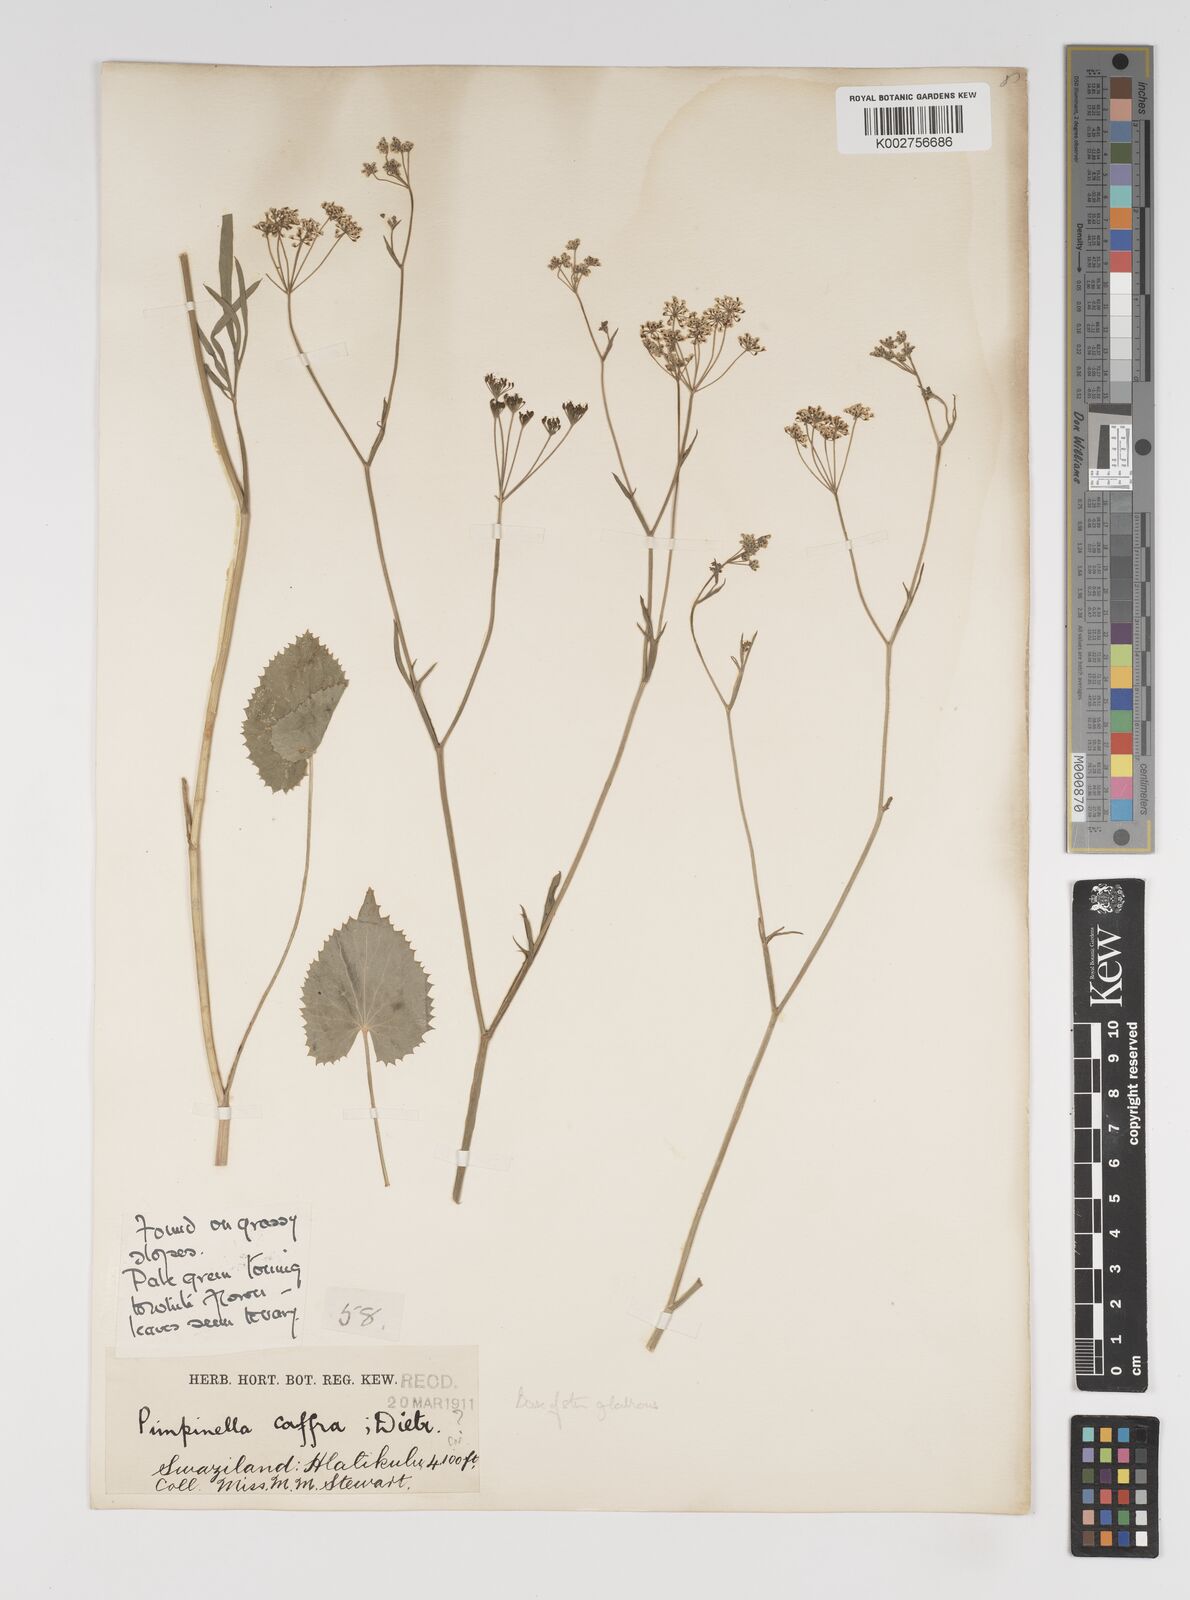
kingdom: Plantae
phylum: Tracheophyta
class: Magnoliopsida
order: Apiales
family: Apiaceae
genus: Pimpinella
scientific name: Pimpinella
